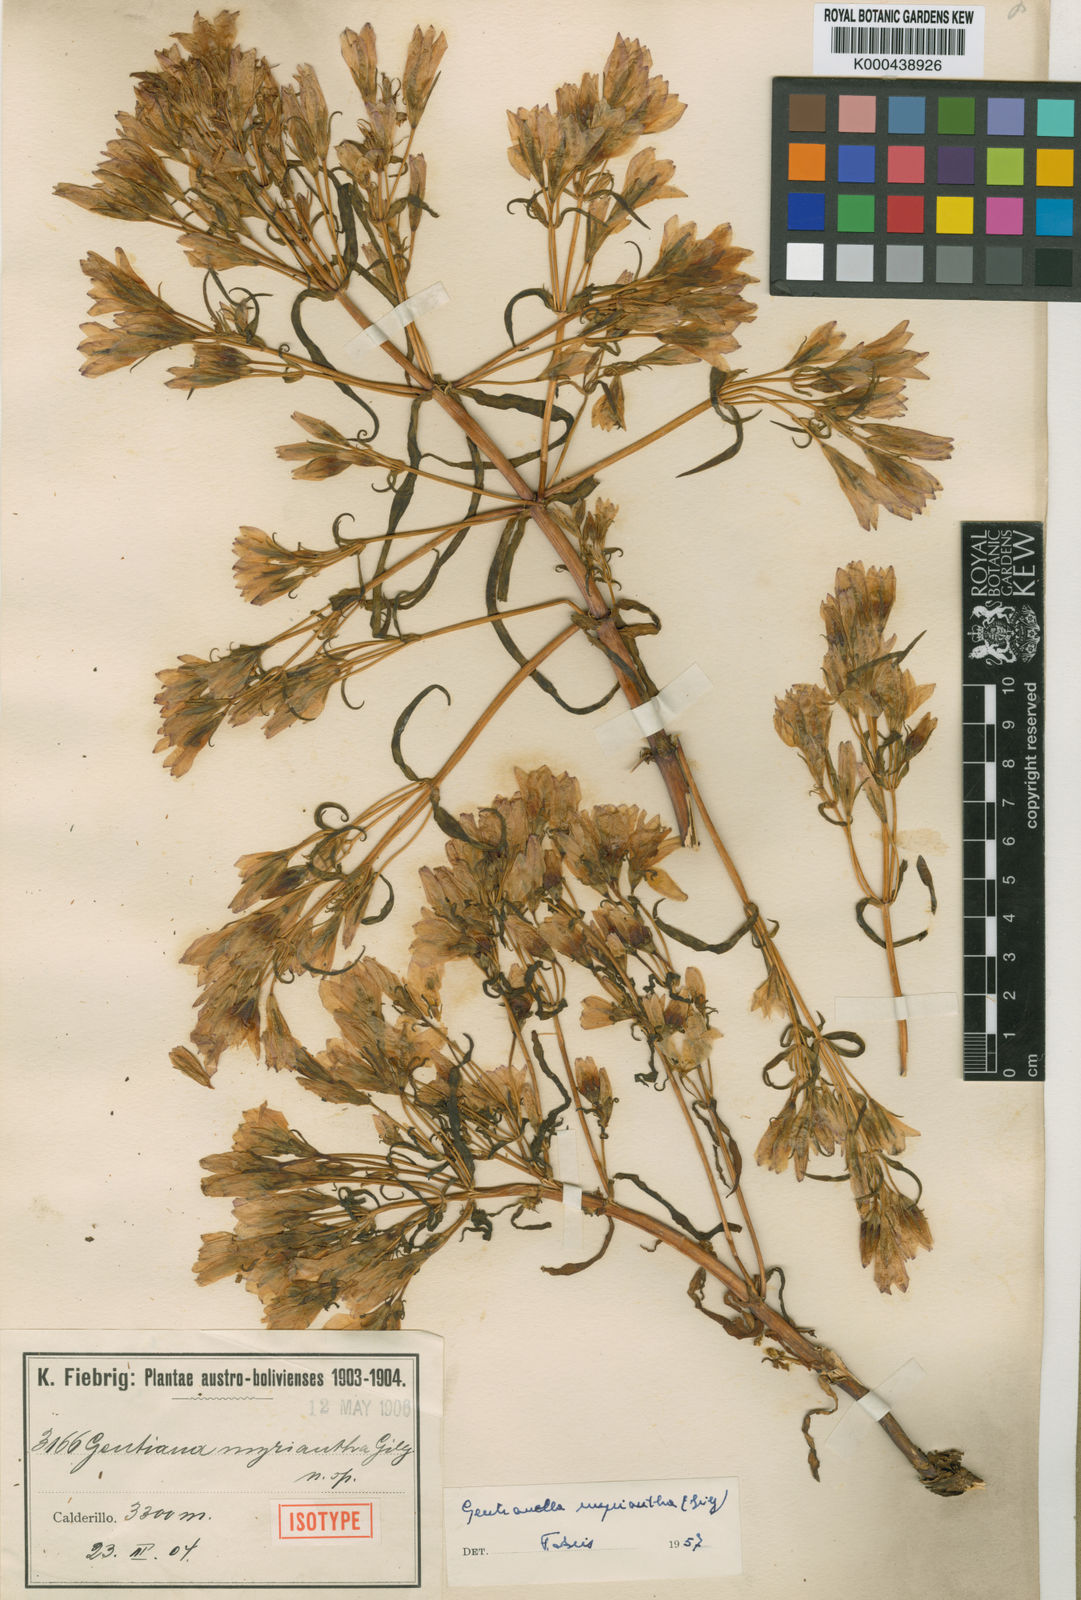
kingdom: Plantae
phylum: Tracheophyta
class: Magnoliopsida
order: Gentianales
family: Gentianaceae
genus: Gentianella
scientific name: Gentianella
